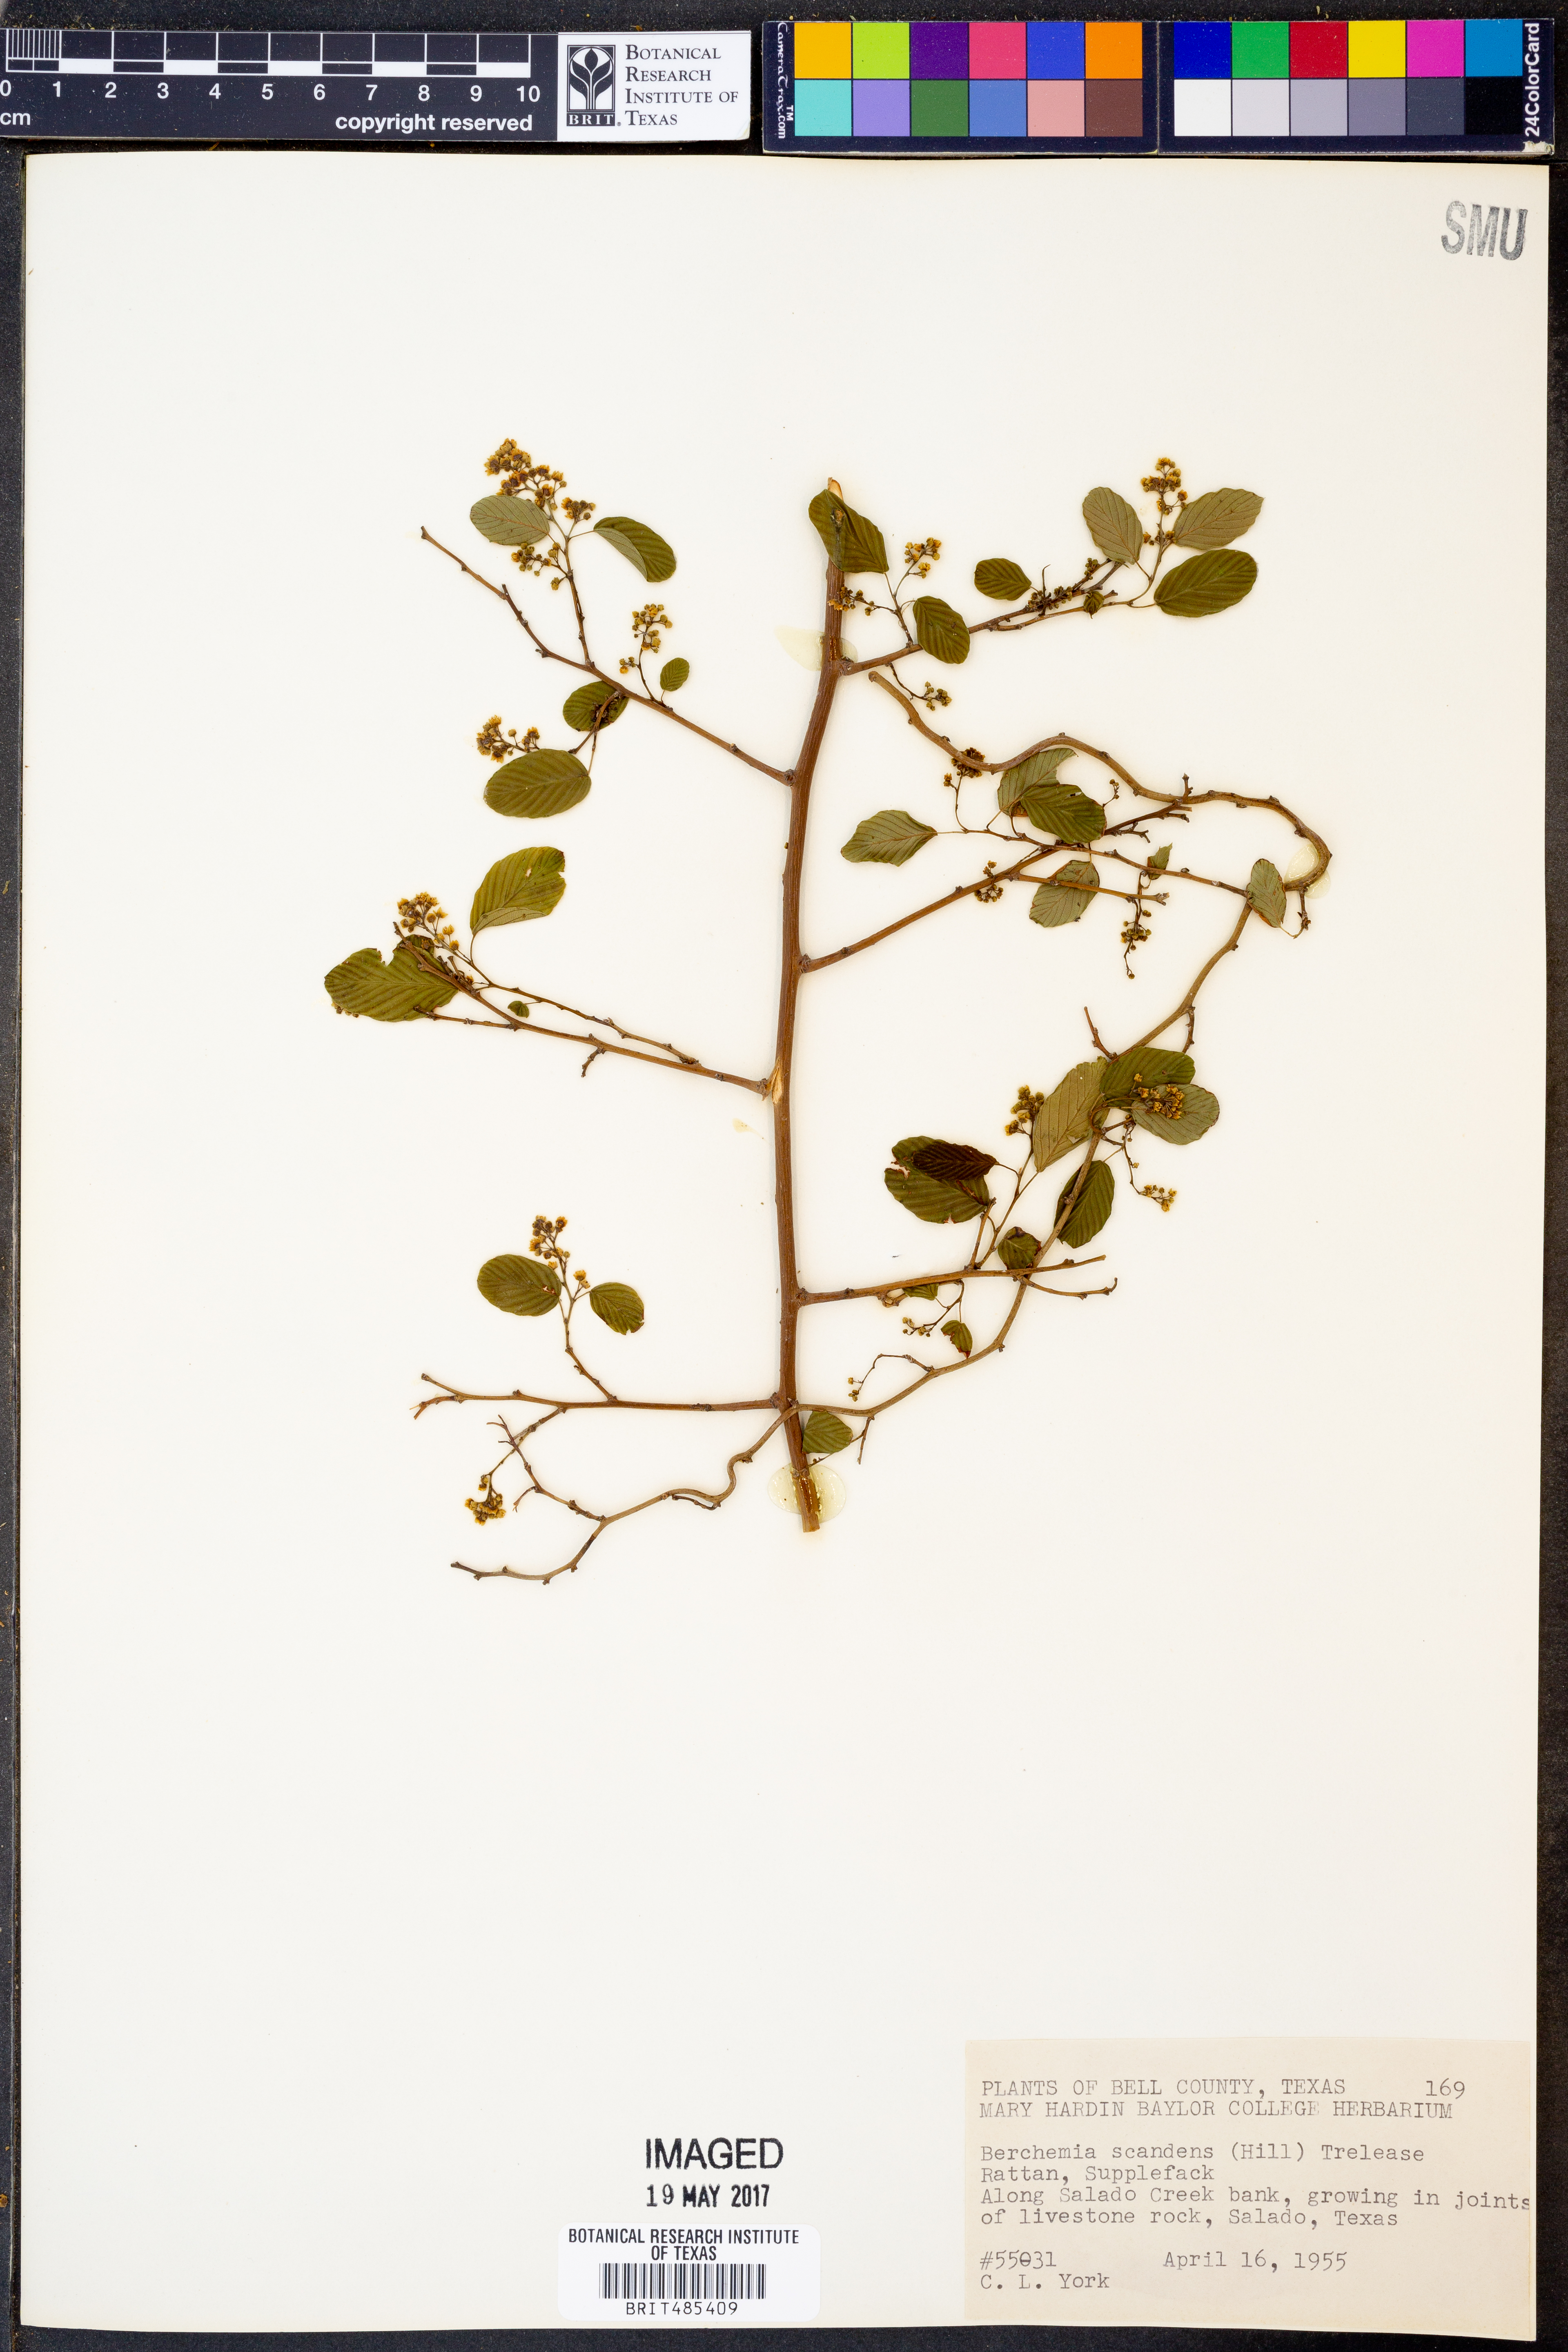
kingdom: Plantae
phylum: Tracheophyta
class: Magnoliopsida
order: Rosales
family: Rhamnaceae
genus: Berchemia
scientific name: Berchemia scandens
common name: Supplejack
